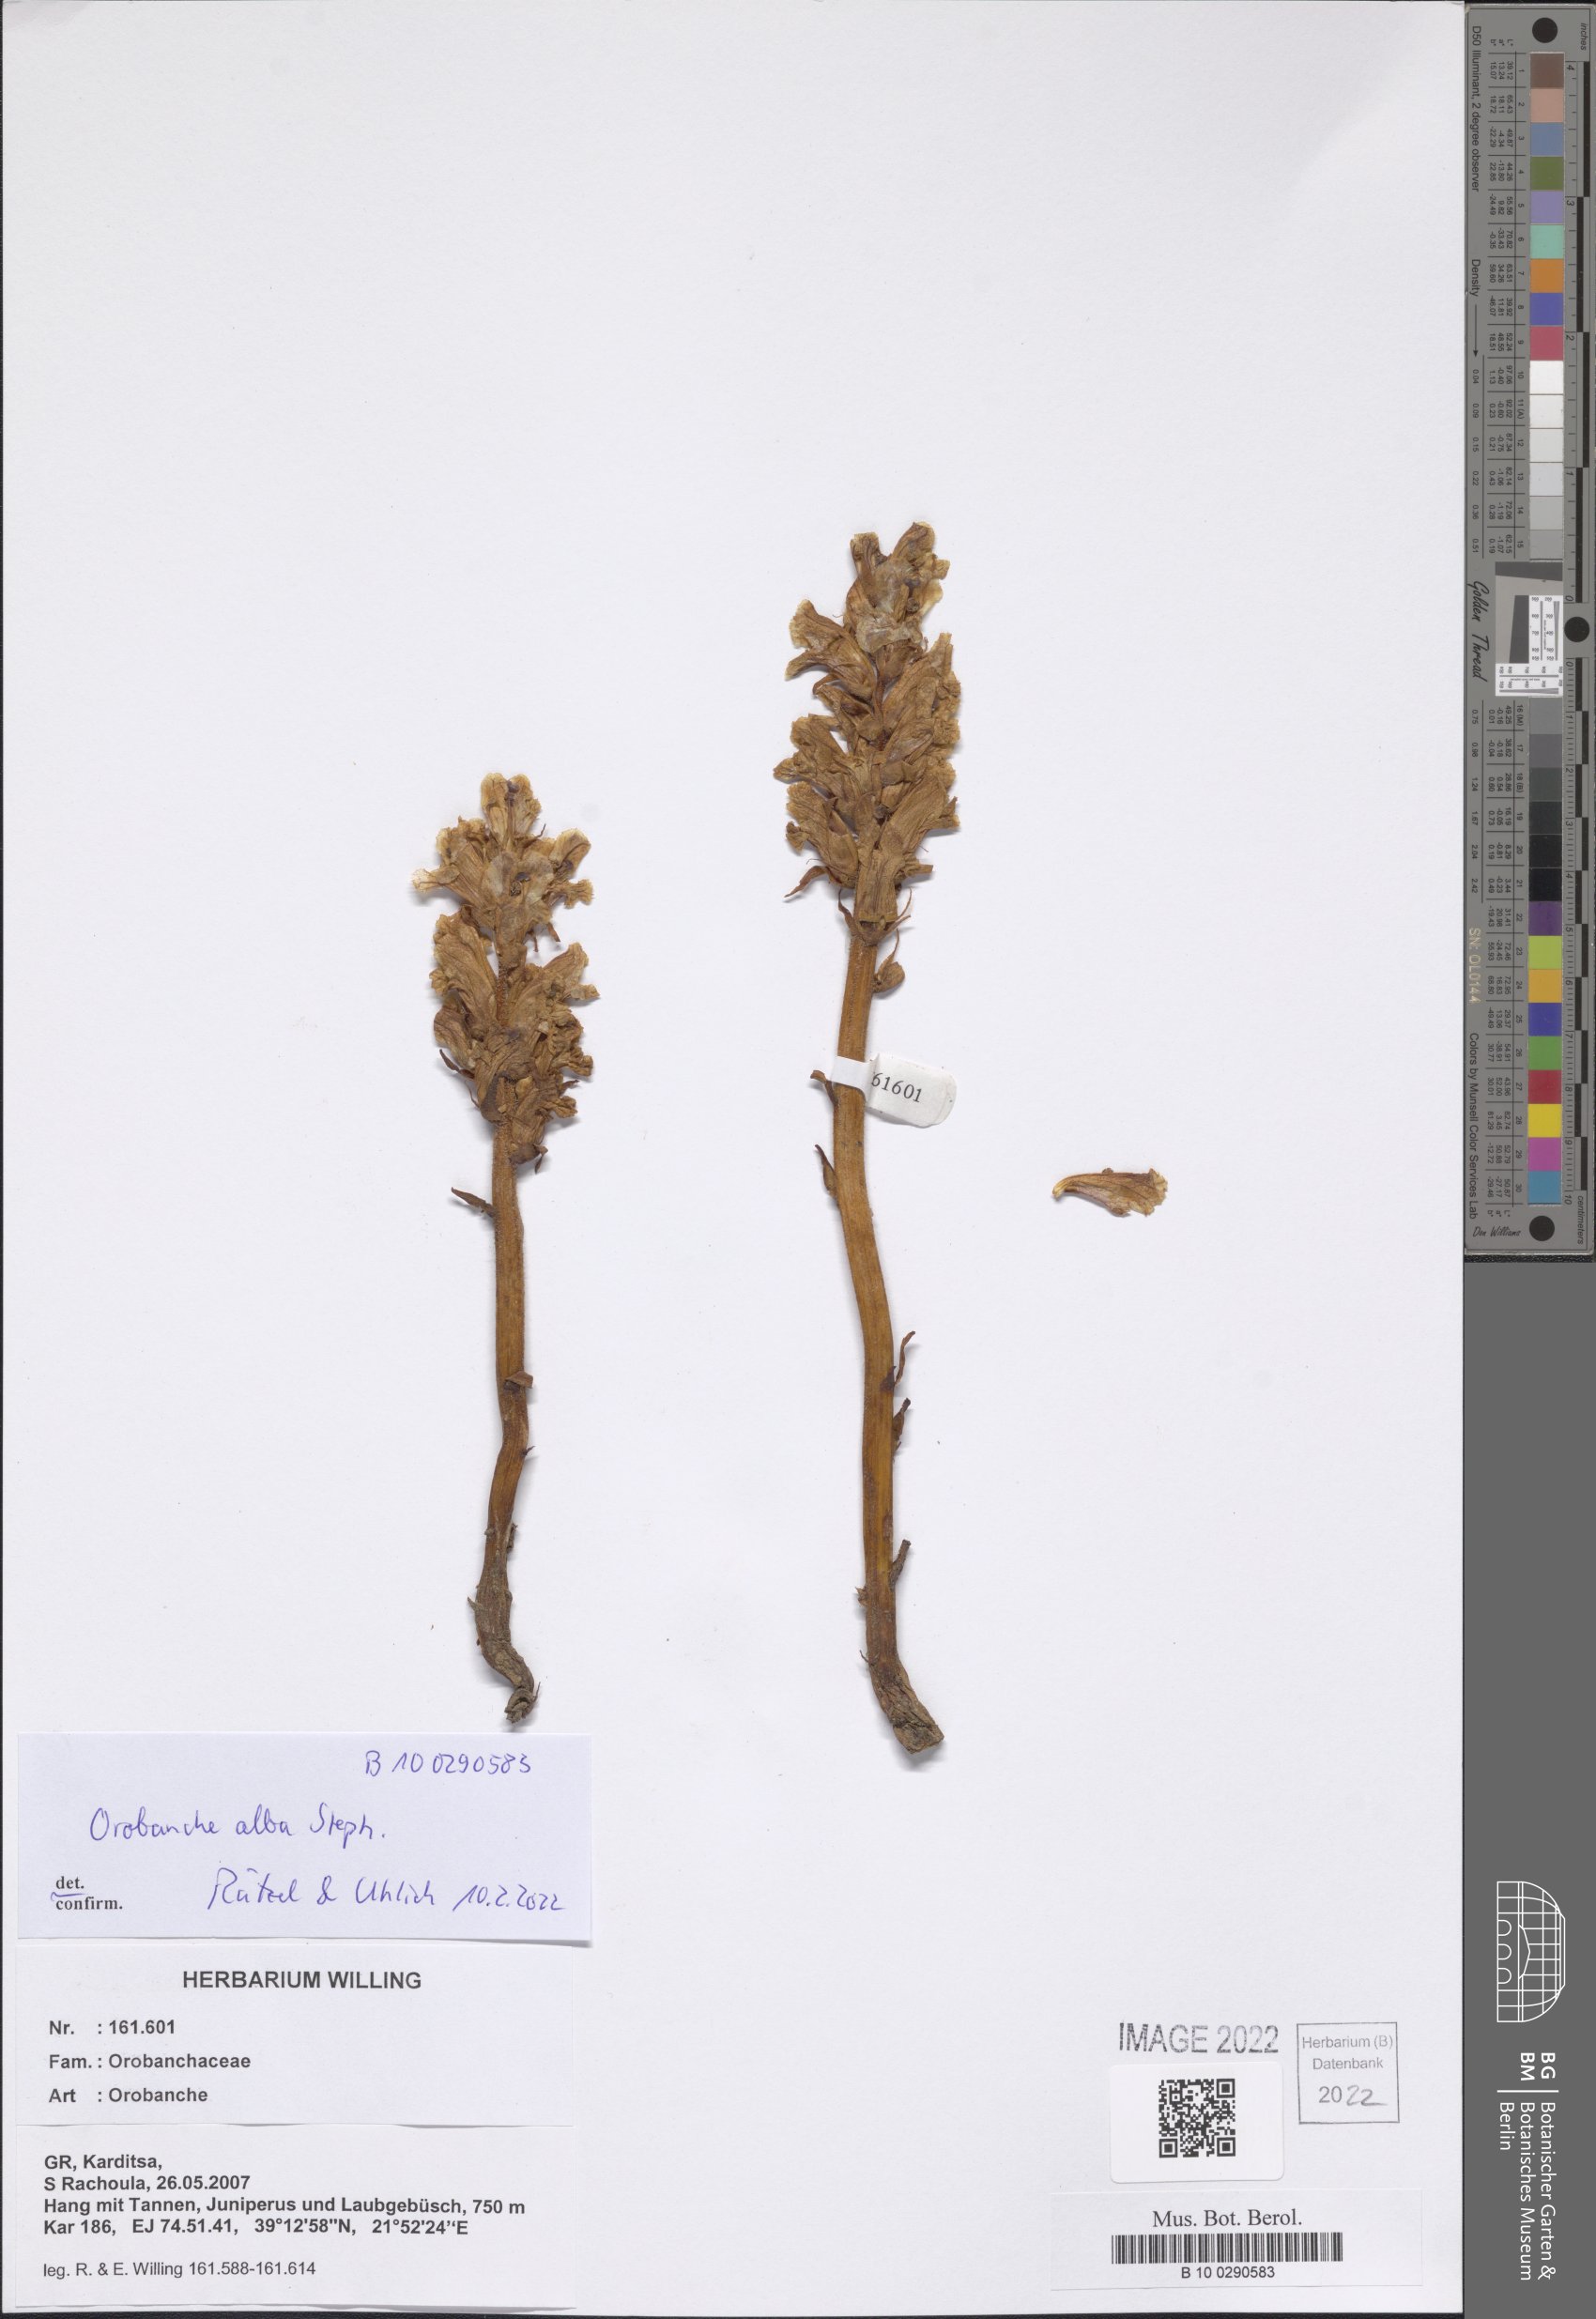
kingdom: Plantae
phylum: Tracheophyta
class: Magnoliopsida
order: Lamiales
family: Orobanchaceae
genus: Orobanche
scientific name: Orobanche
